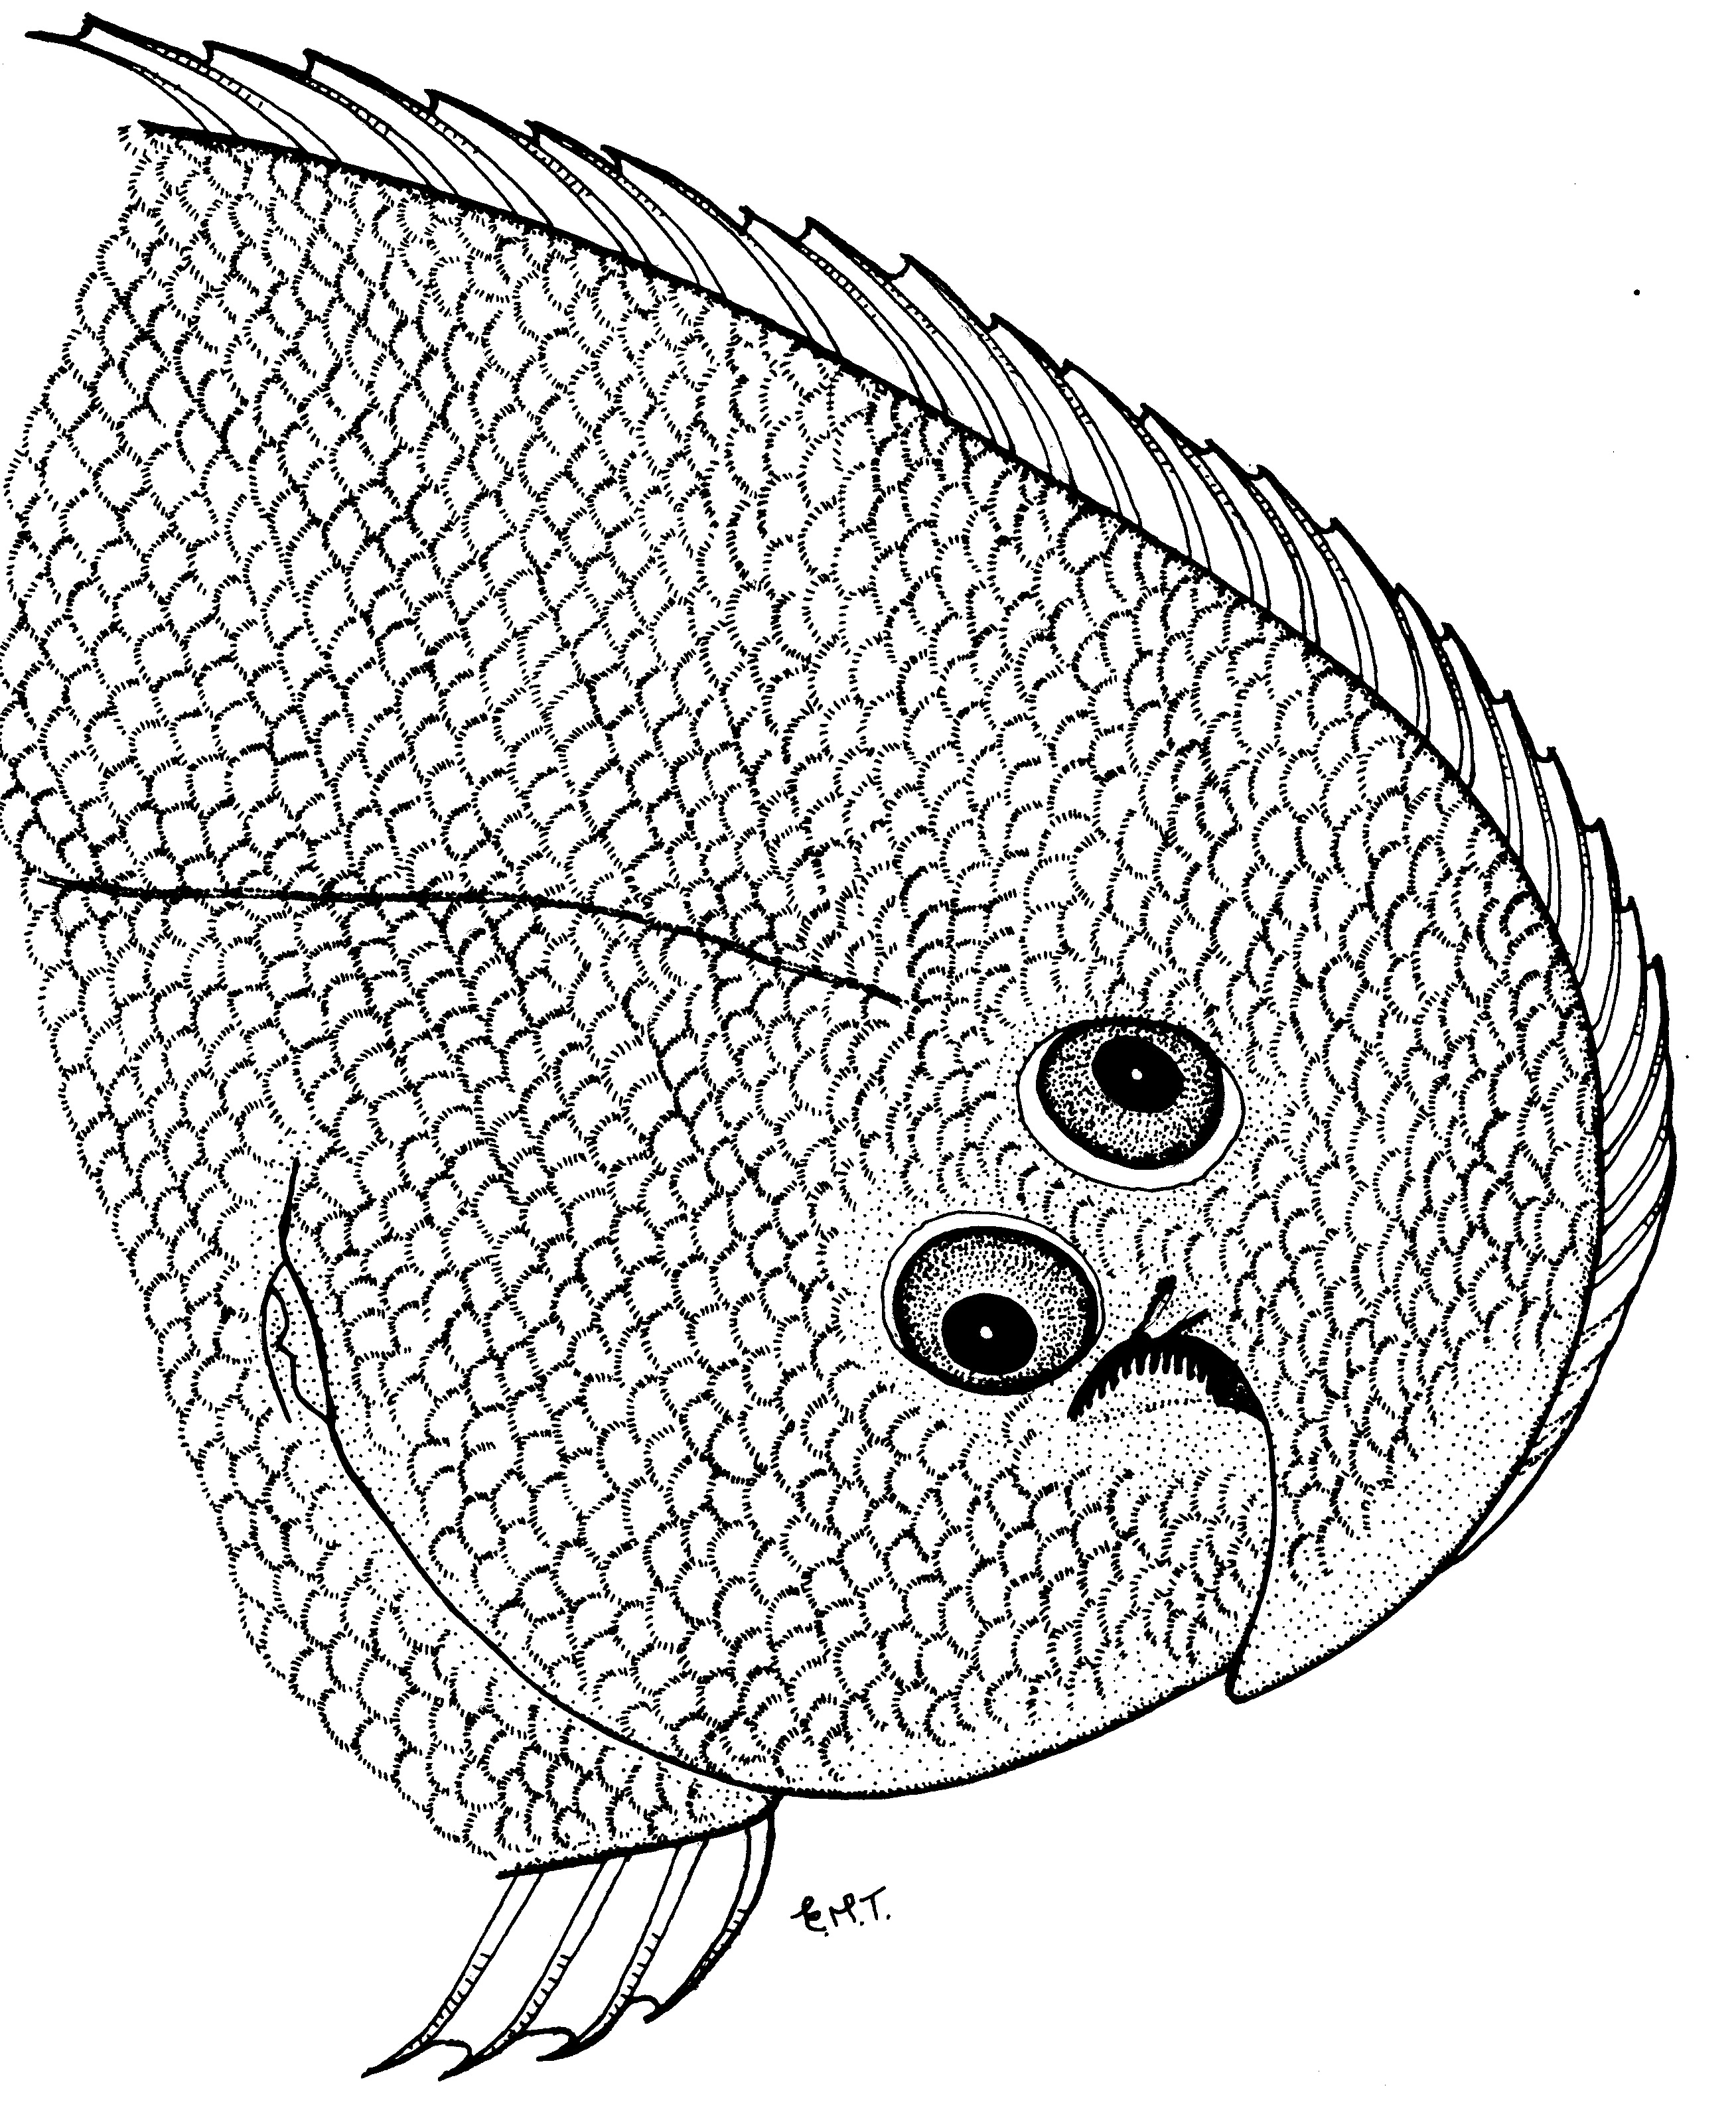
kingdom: Animalia
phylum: Chordata
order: Pleuronectiformes
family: Soleidae
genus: Heteromycteris
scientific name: Heteromycteris capensis
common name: Cape sole
